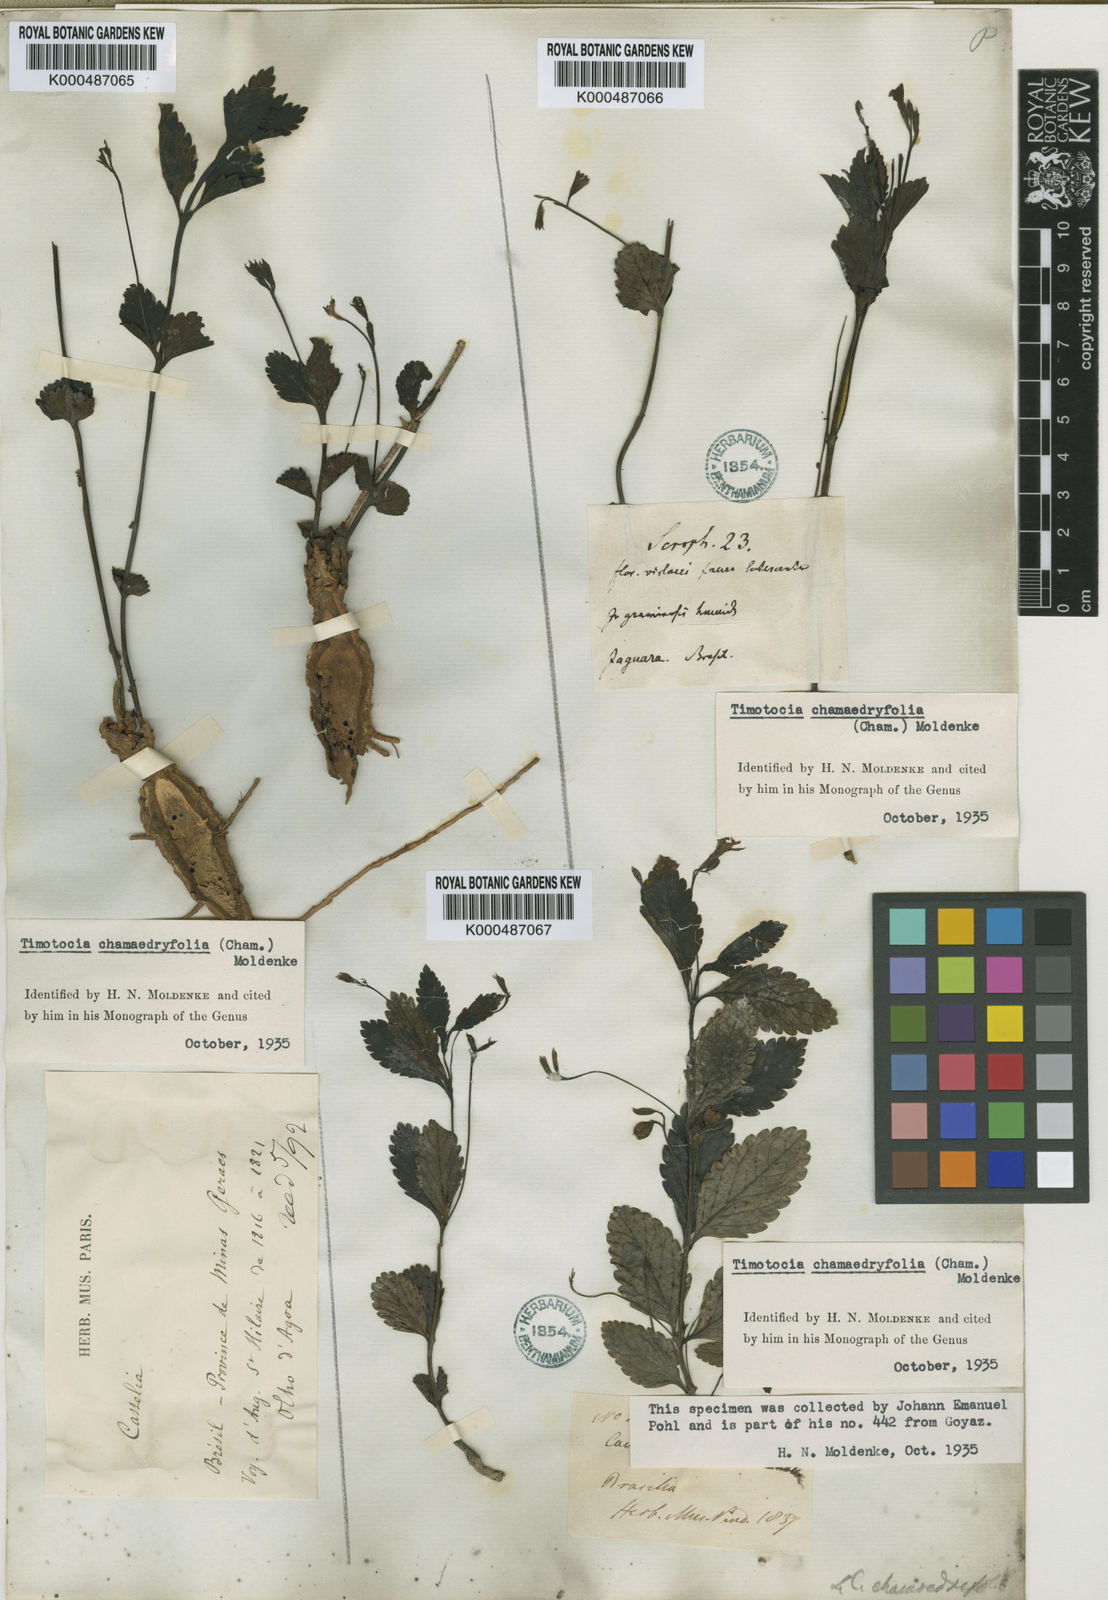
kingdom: Plantae
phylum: Tracheophyta
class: Magnoliopsida
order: Lamiales
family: Verbenaceae
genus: Casselia
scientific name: Casselia chamaedryfolia
